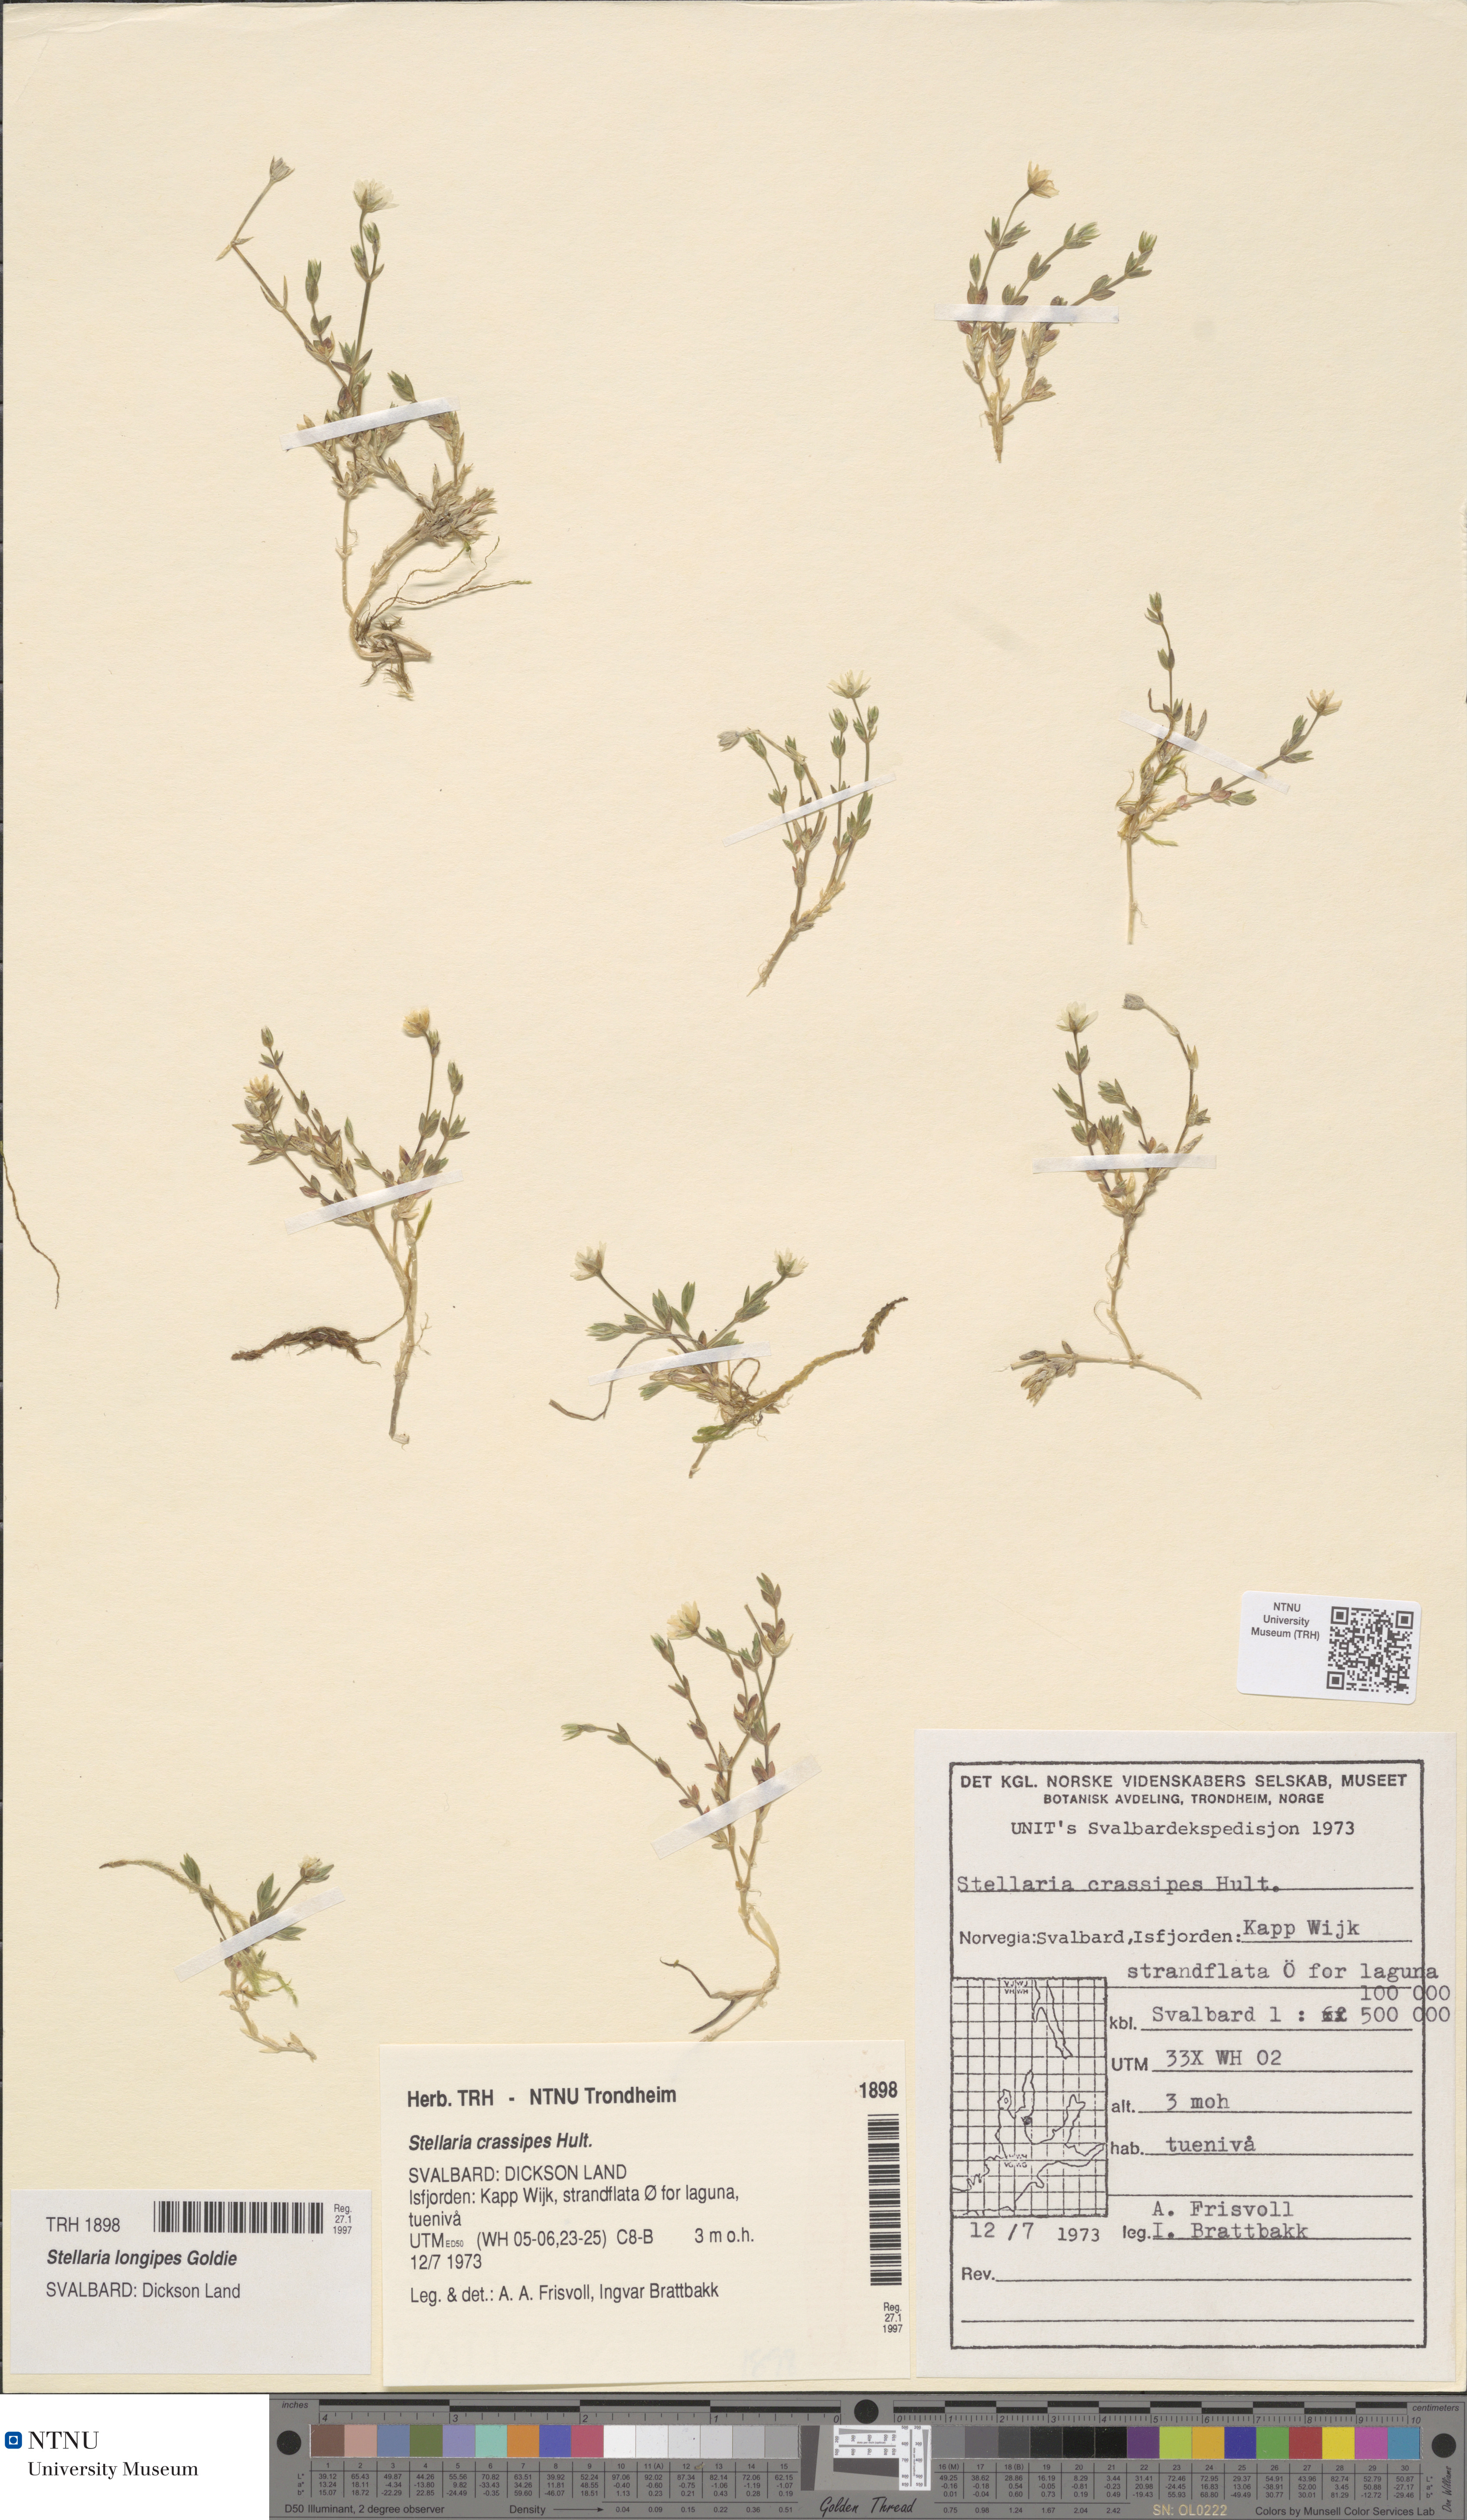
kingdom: Plantae
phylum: Tracheophyta
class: Magnoliopsida
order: Caryophyllales
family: Caryophyllaceae
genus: Stellaria
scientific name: Stellaria longipes
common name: Goldie's starwort
